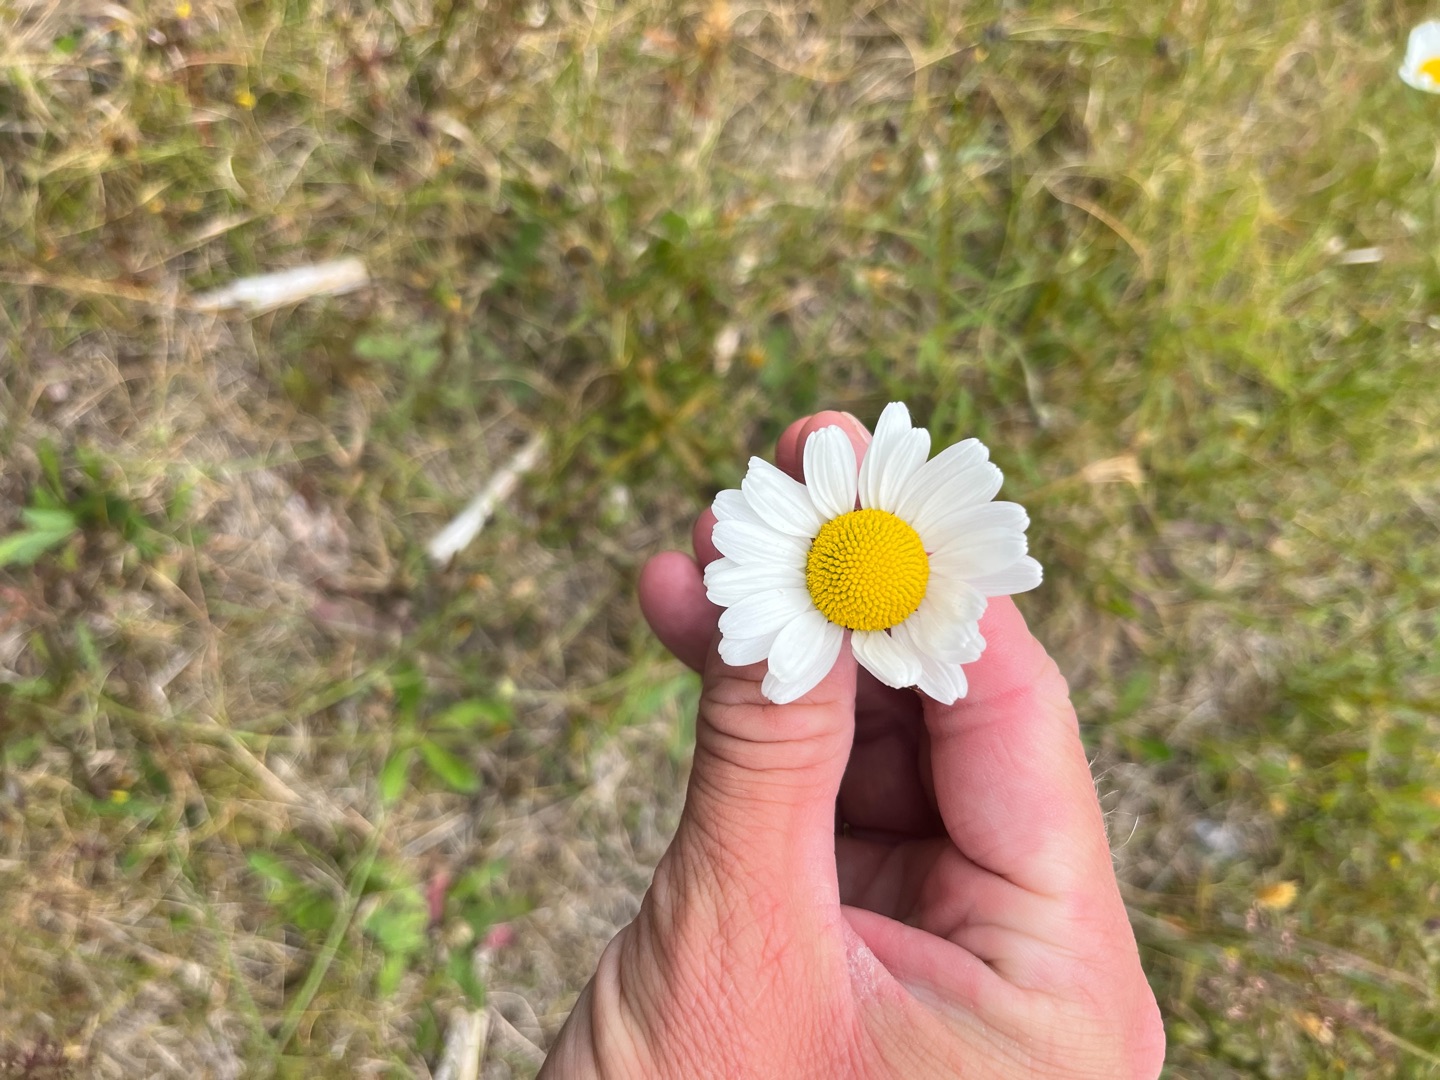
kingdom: Plantae
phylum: Tracheophyta
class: Magnoliopsida
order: Asterales
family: Asteraceae
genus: Leucanthemum
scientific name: Leucanthemum vulgare
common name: Hvid okseøje
